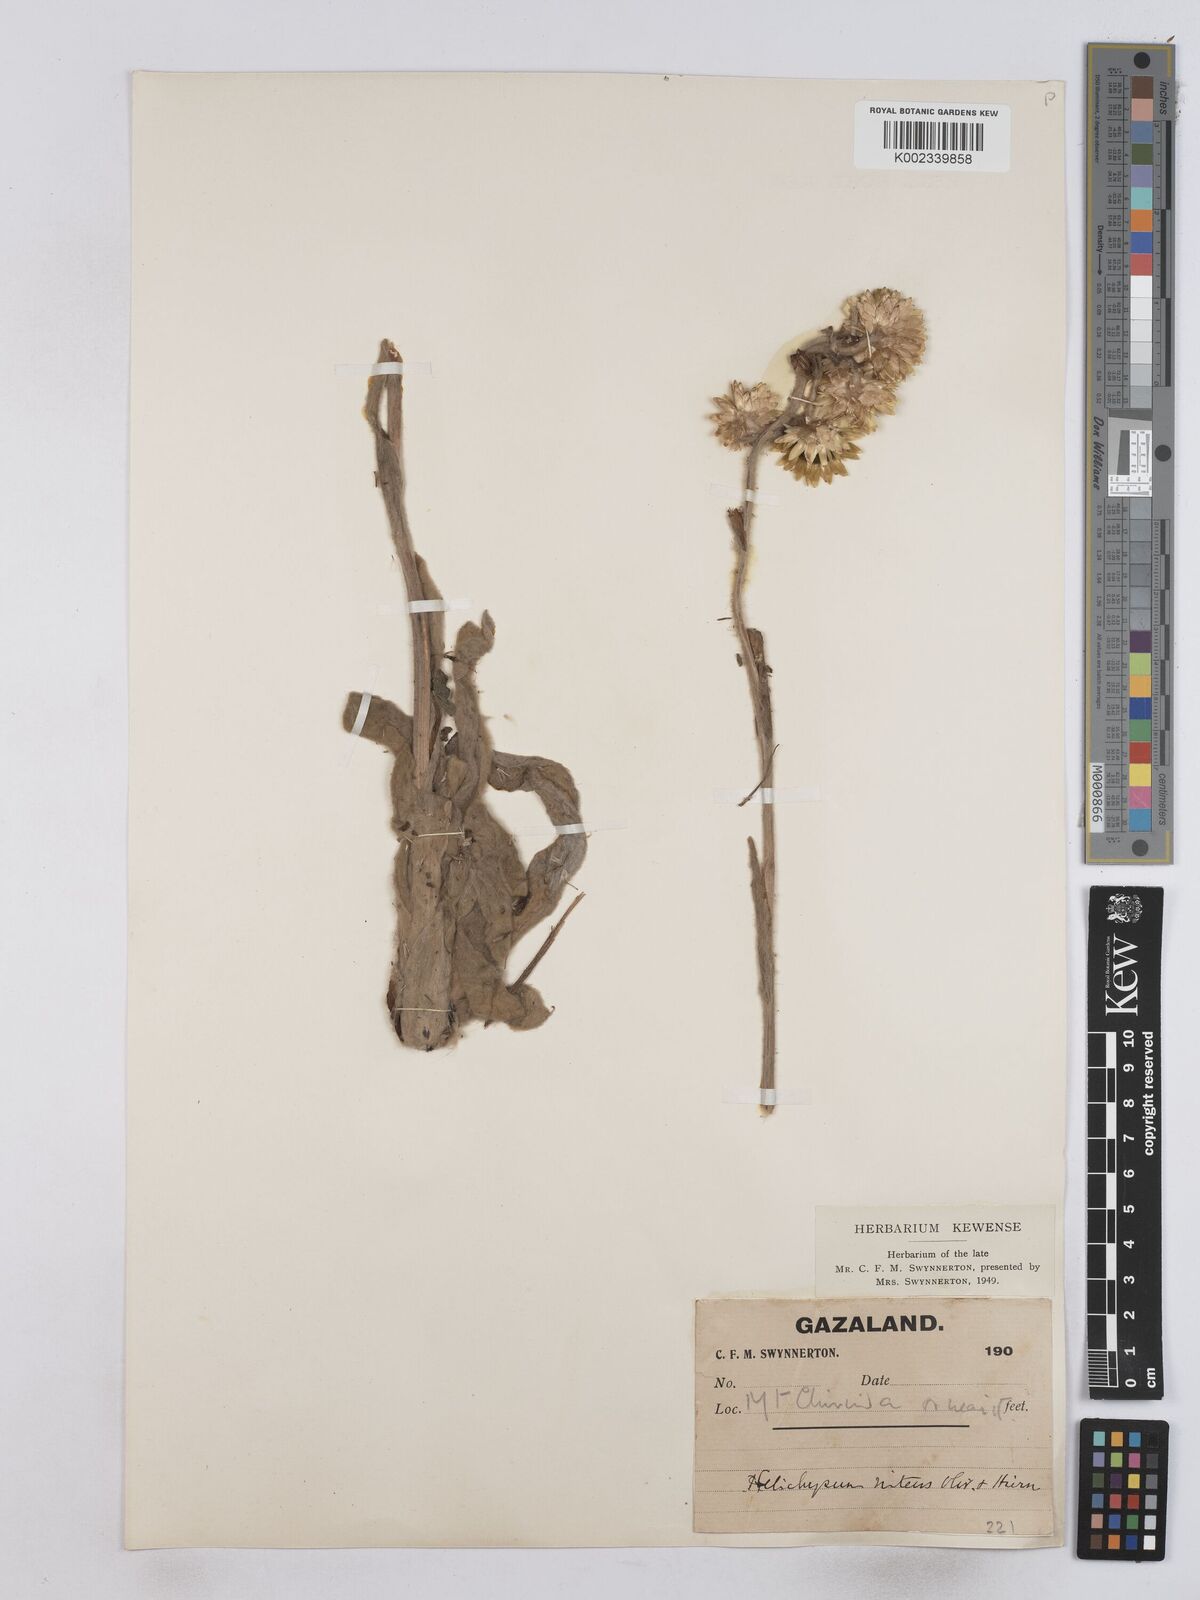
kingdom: Plantae
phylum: Tracheophyta
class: Magnoliopsida
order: Asterales
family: Asteraceae
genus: Helichrysum
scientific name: Helichrysum nitens
